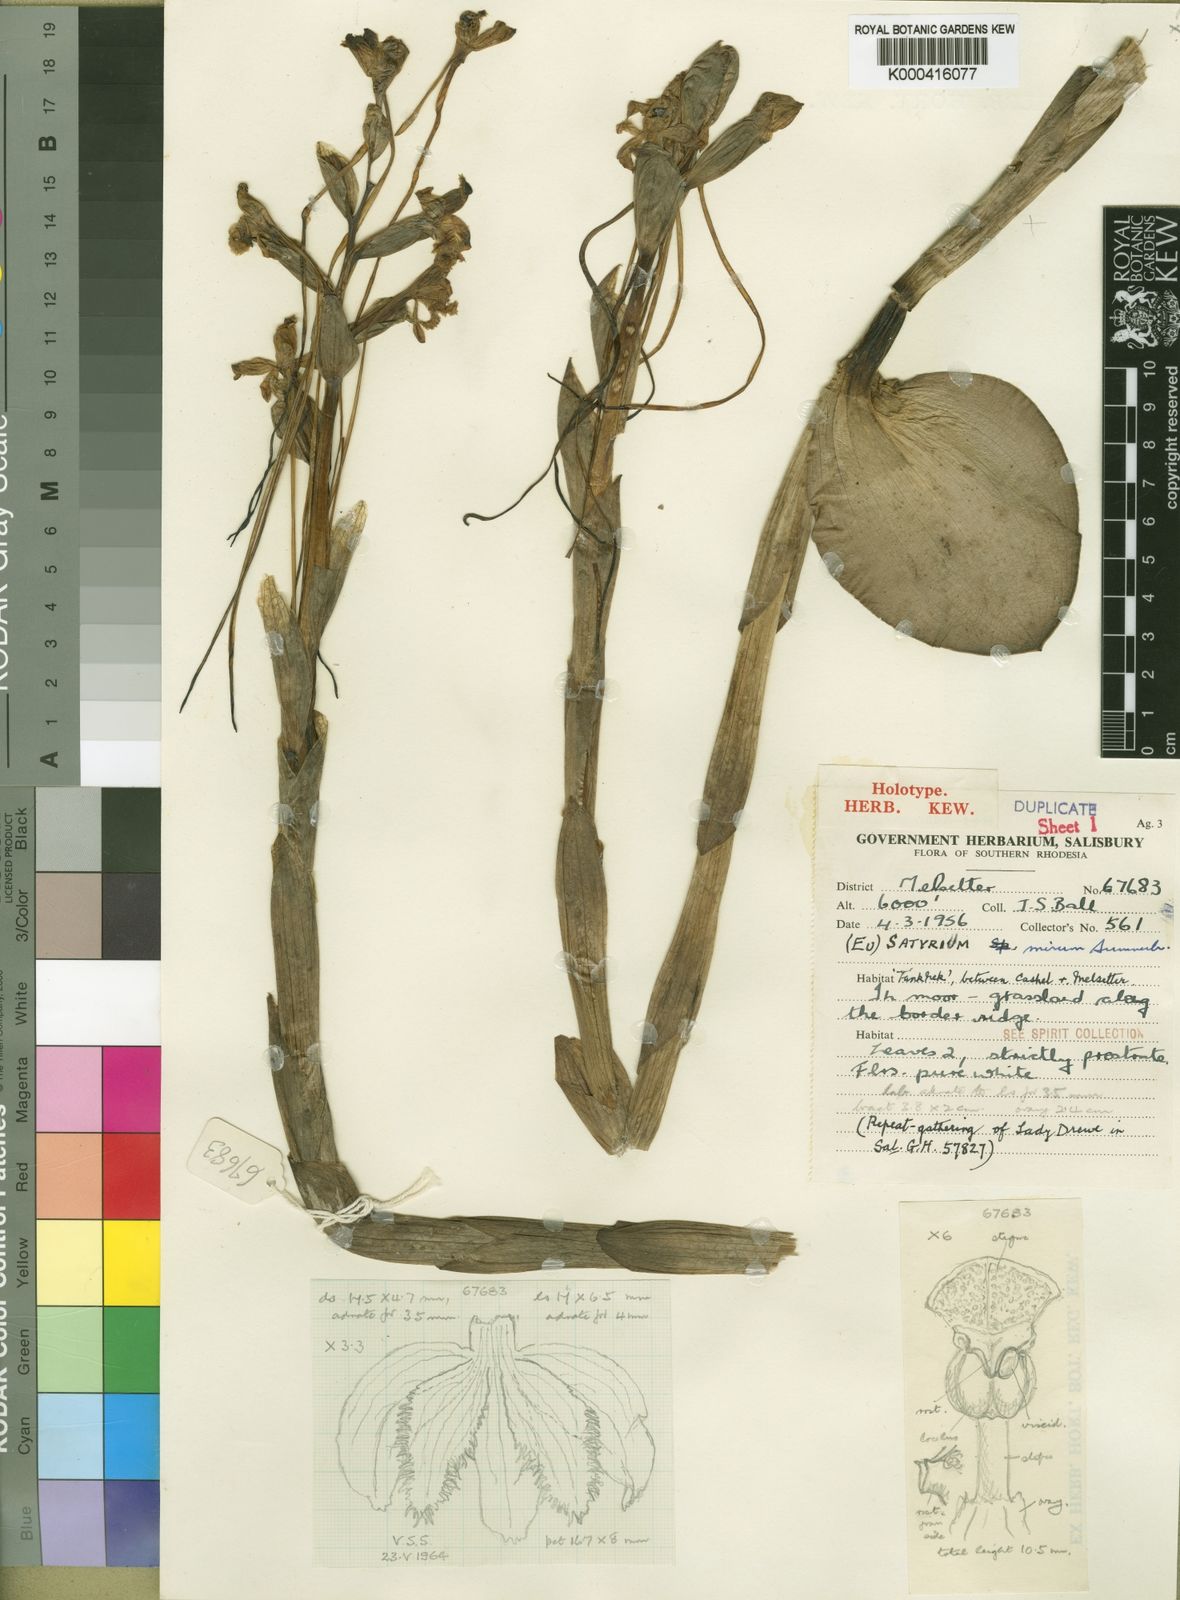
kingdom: Plantae
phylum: Tracheophyta
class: Liliopsida
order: Asparagales
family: Orchidaceae
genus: Satyrium
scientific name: Satyrium mirum
